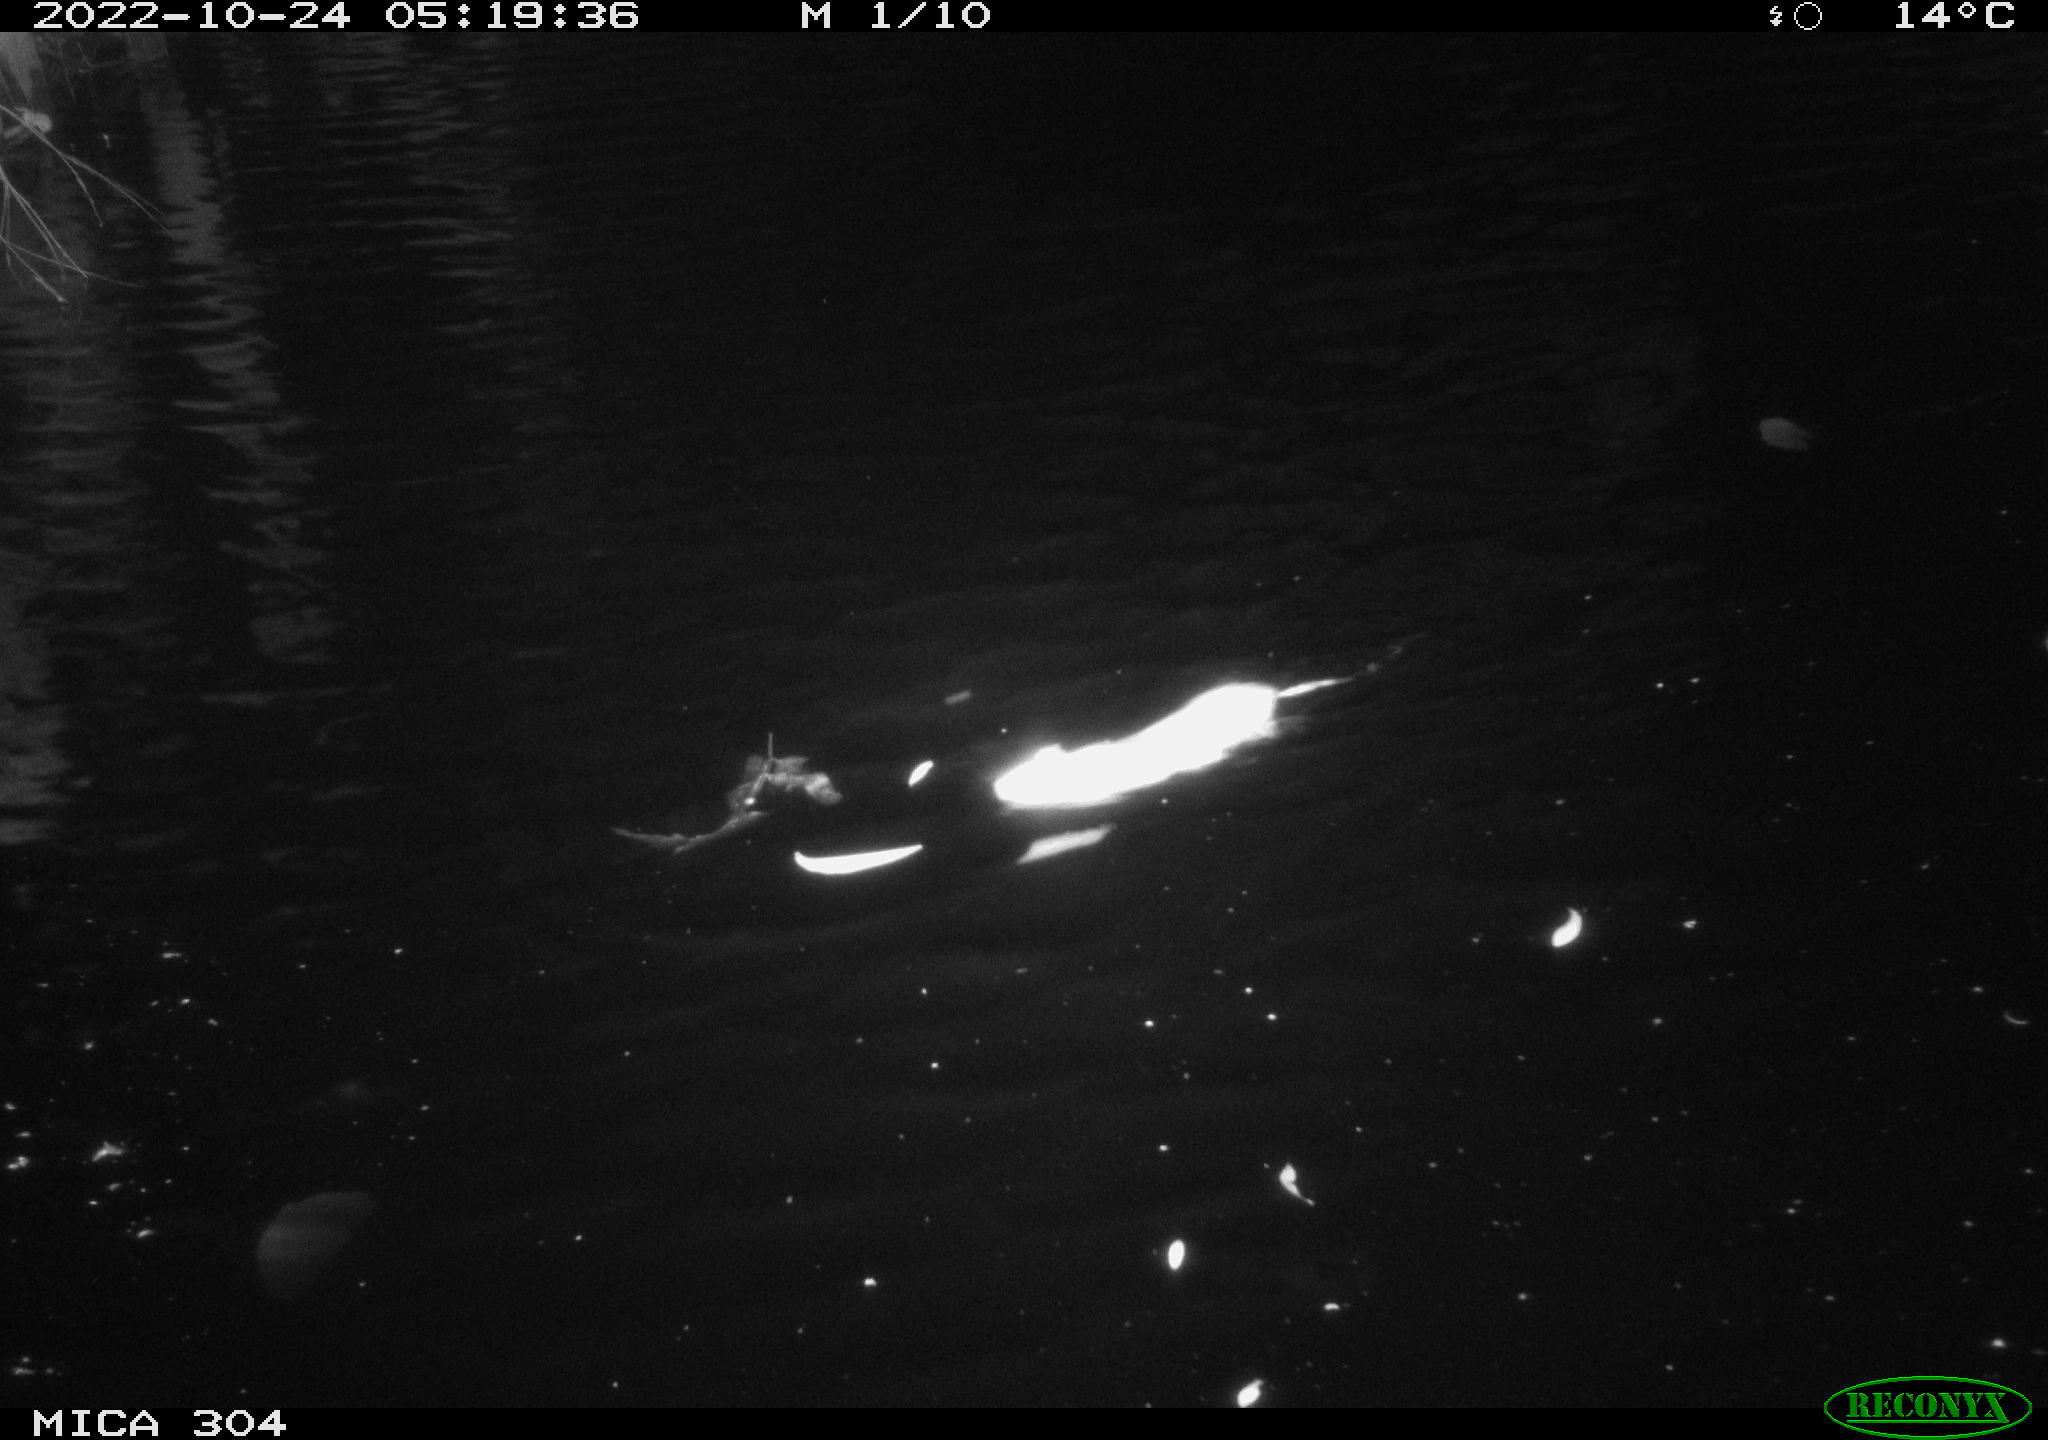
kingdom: Animalia
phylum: Chordata
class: Mammalia
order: Rodentia
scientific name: Rodentia
